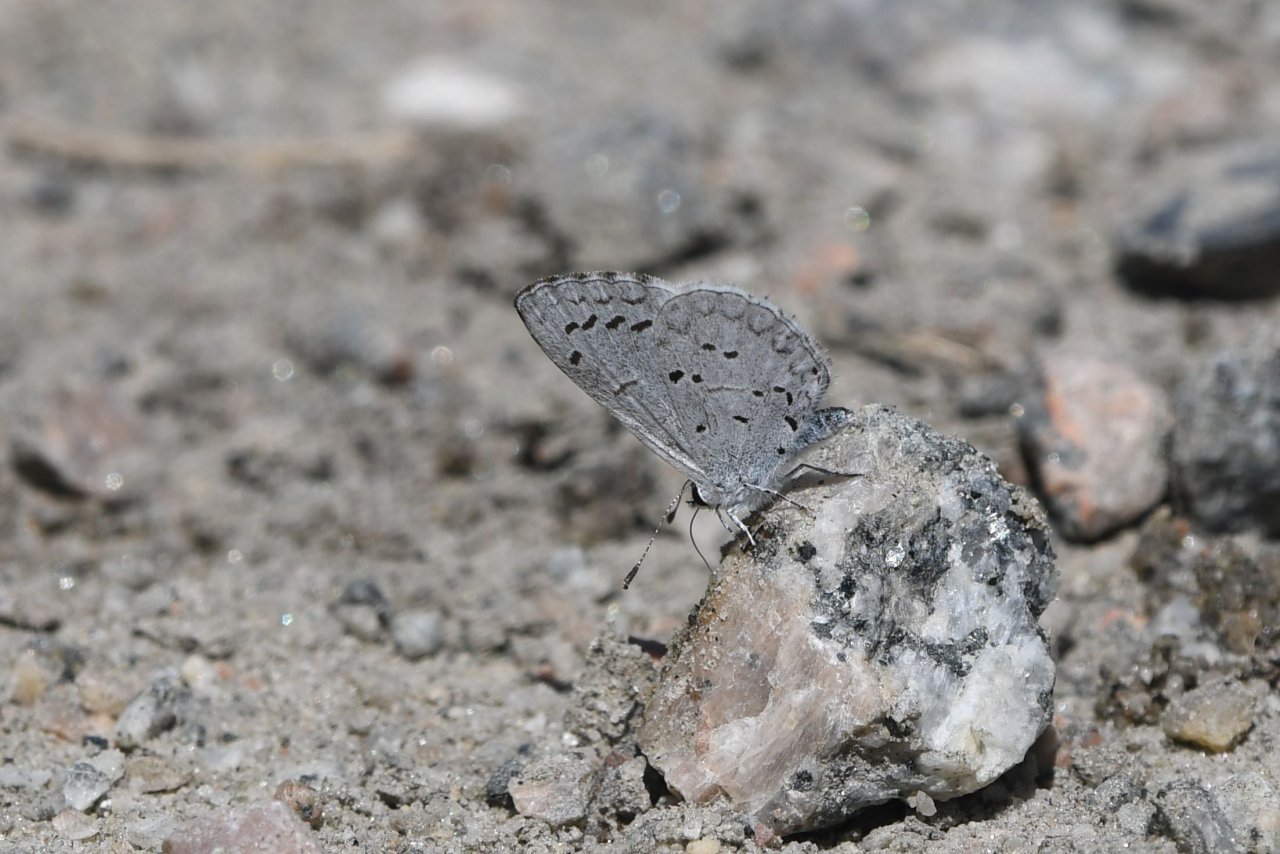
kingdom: Animalia
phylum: Arthropoda
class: Insecta
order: Lepidoptera
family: Lycaenidae
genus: Celastrina
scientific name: Celastrina idella
